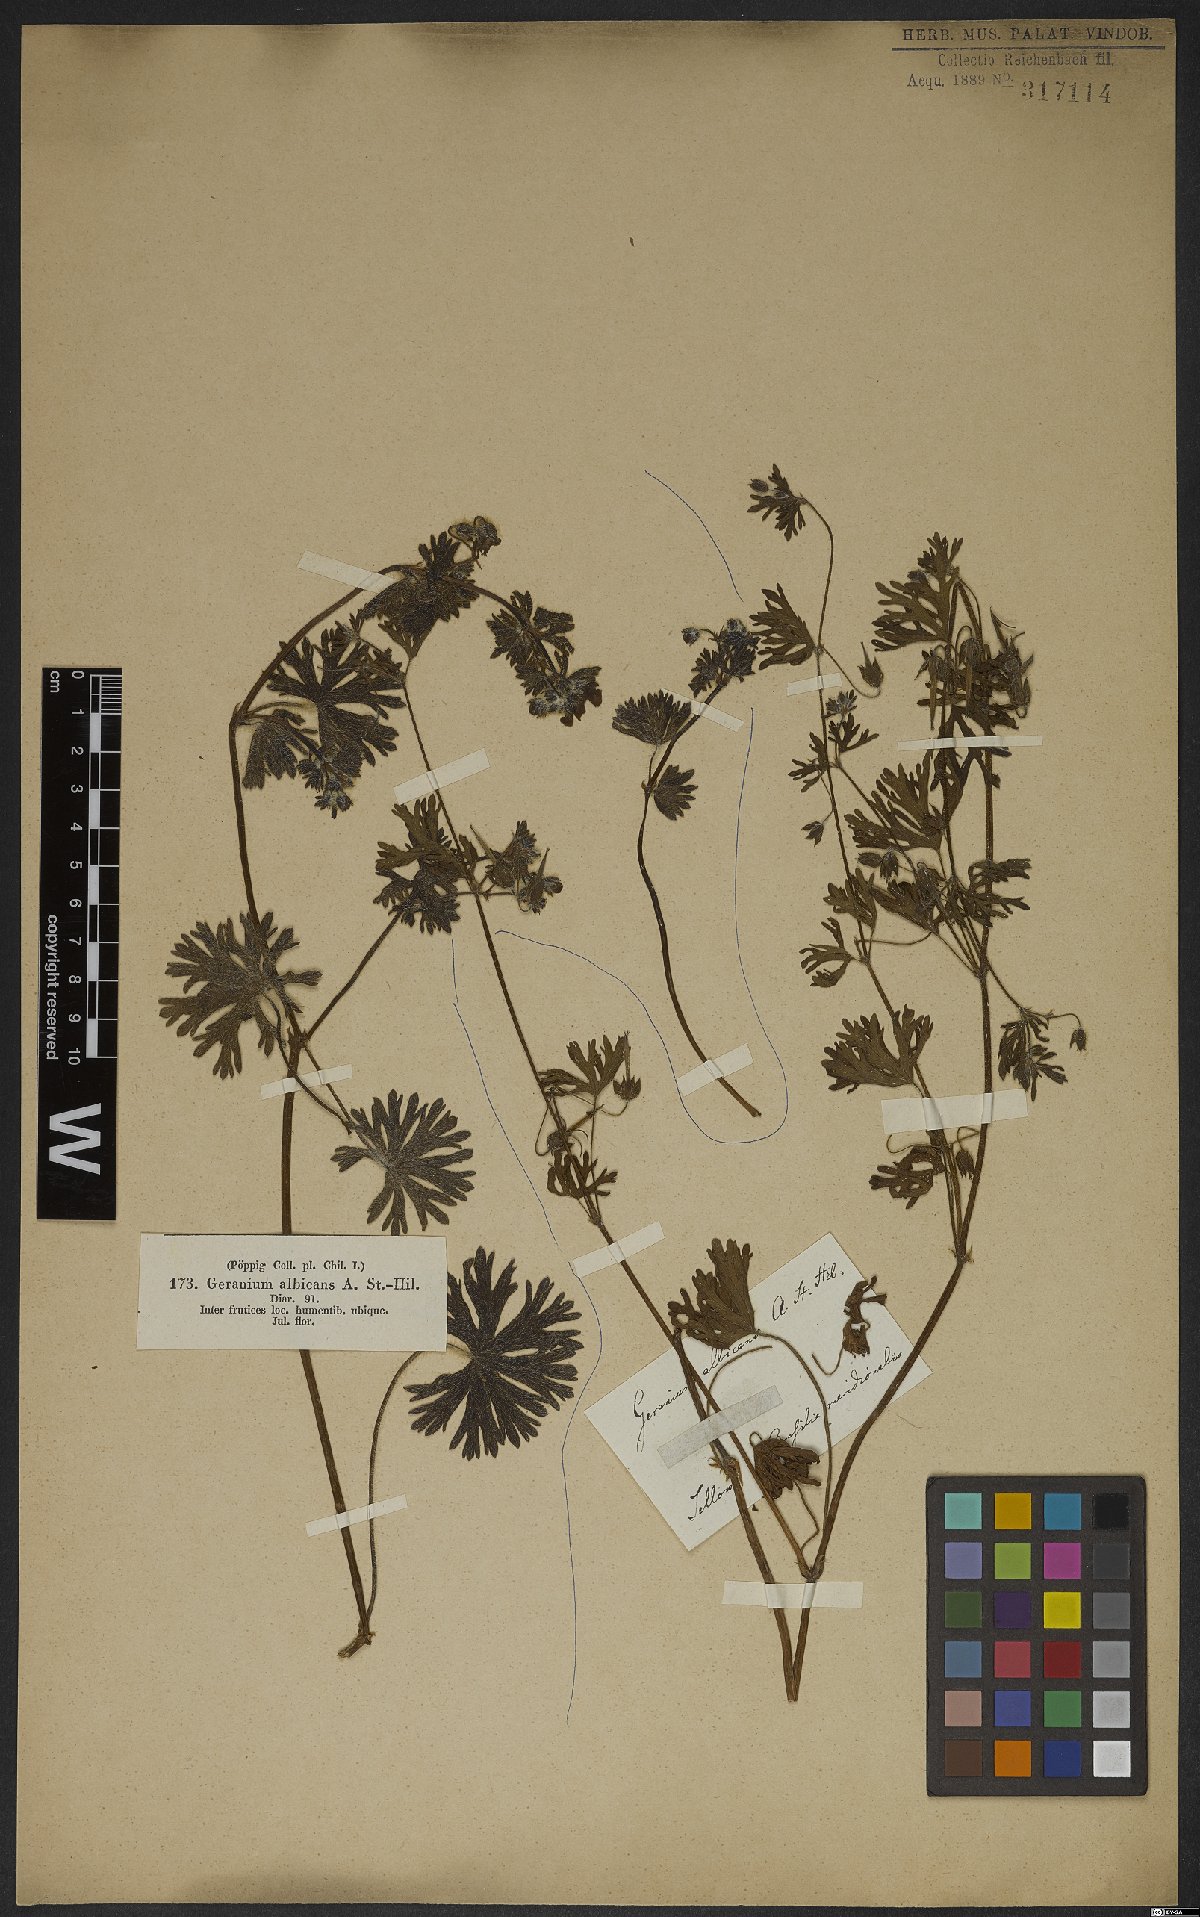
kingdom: Plantae
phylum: Tracheophyta
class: Magnoliopsida
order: Geraniales
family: Geraniaceae
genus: Geranium
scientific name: Geranium albicans
